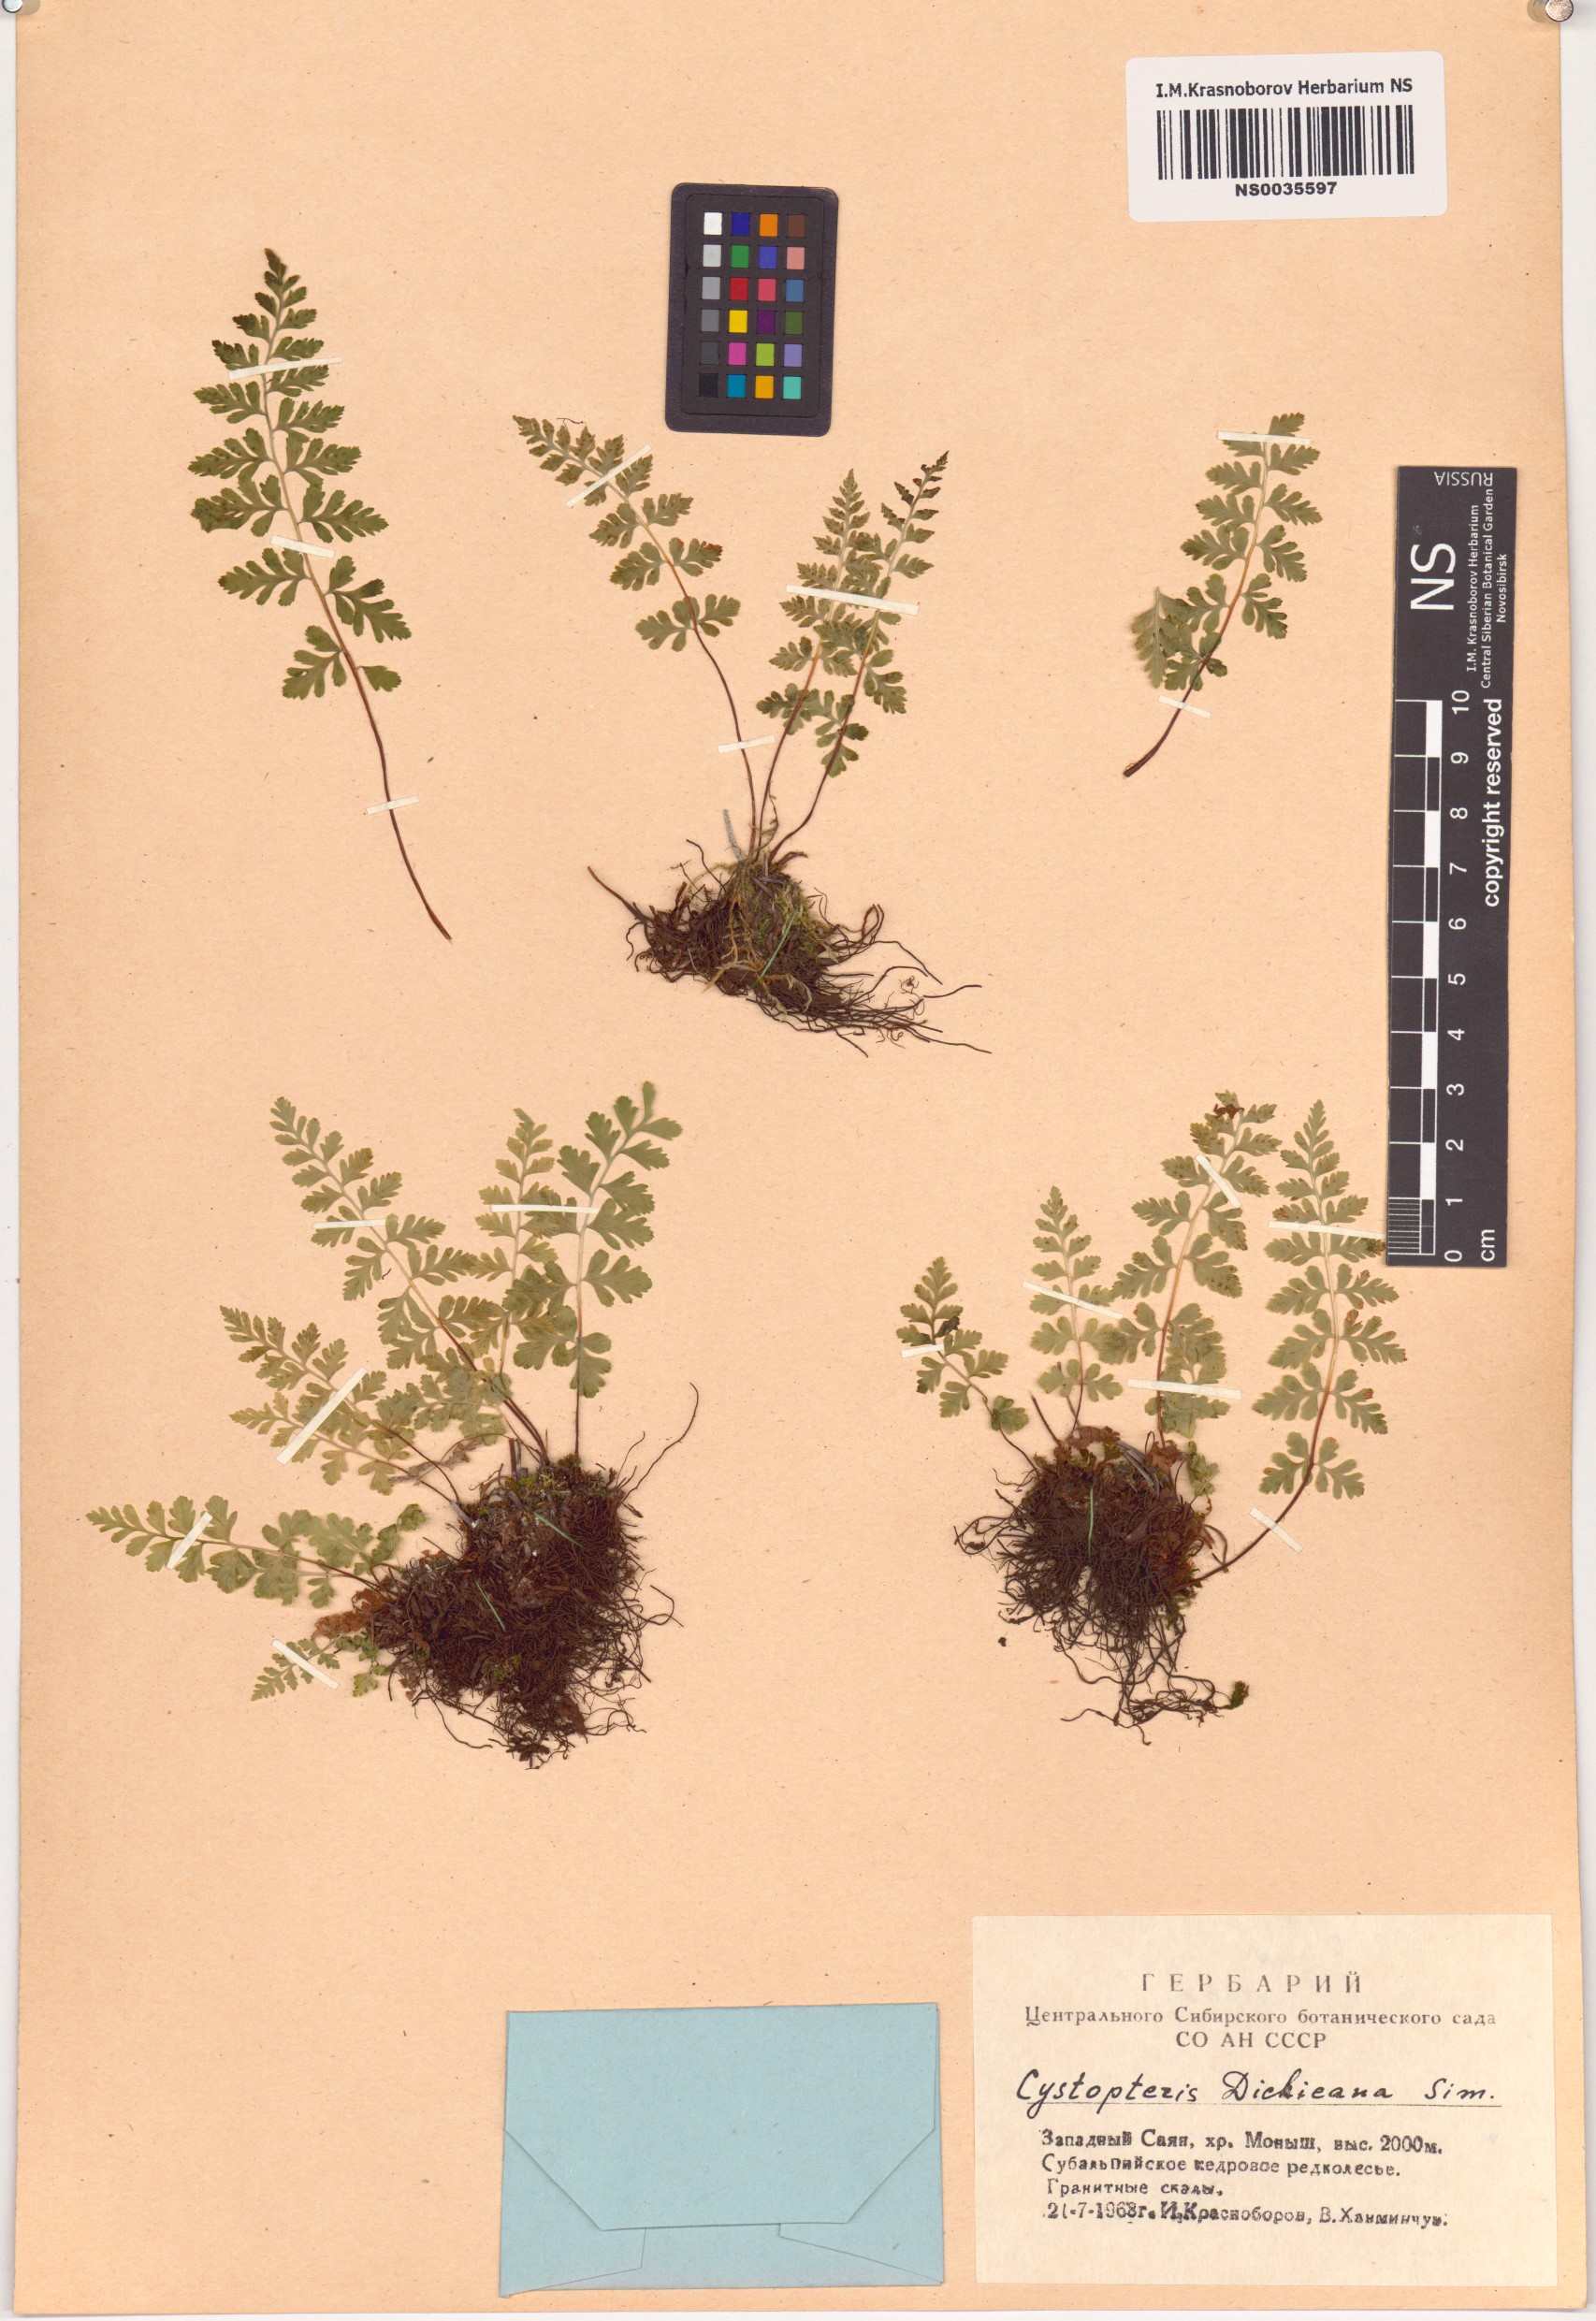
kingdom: Plantae
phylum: Tracheophyta
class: Polypodiopsida
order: Polypodiales
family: Cystopteridaceae
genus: Cystopteris
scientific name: Cystopteris dickieana
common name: Dickie's bladder-fern
